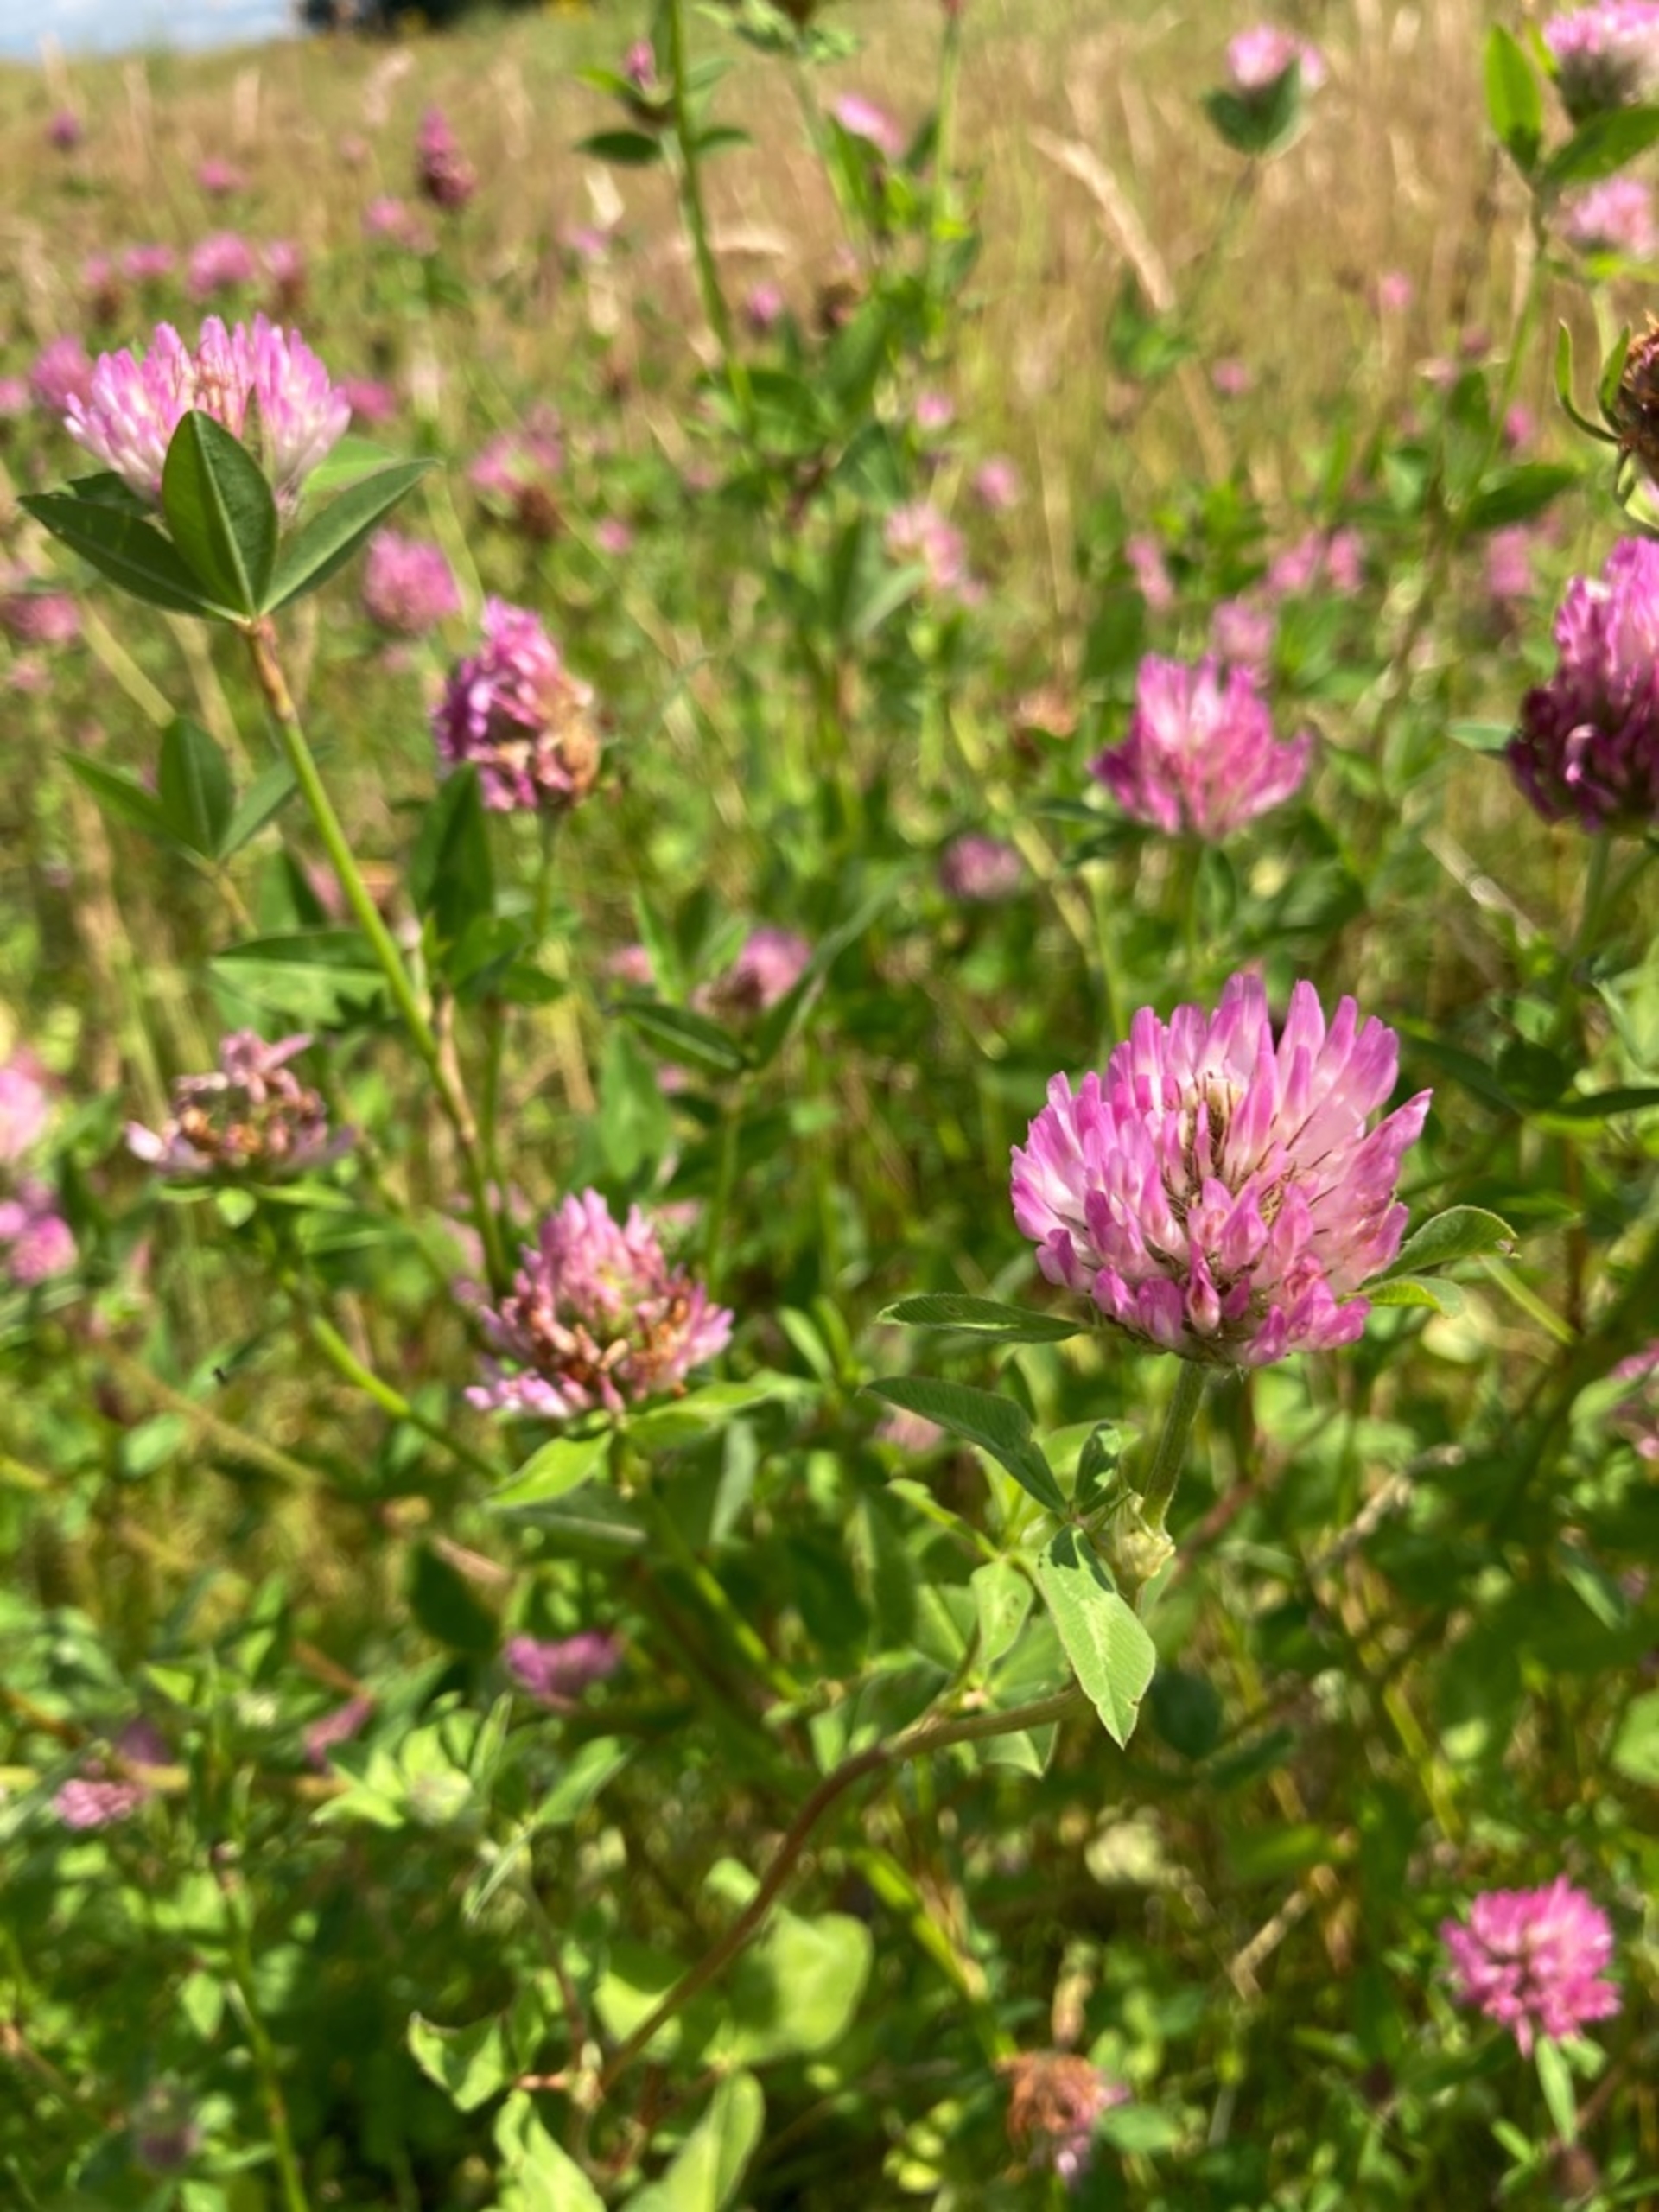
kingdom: Plantae
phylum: Tracheophyta
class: Magnoliopsida
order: Fabales
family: Fabaceae
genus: Trifolium
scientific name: Trifolium pratense
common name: Rød-kløver
